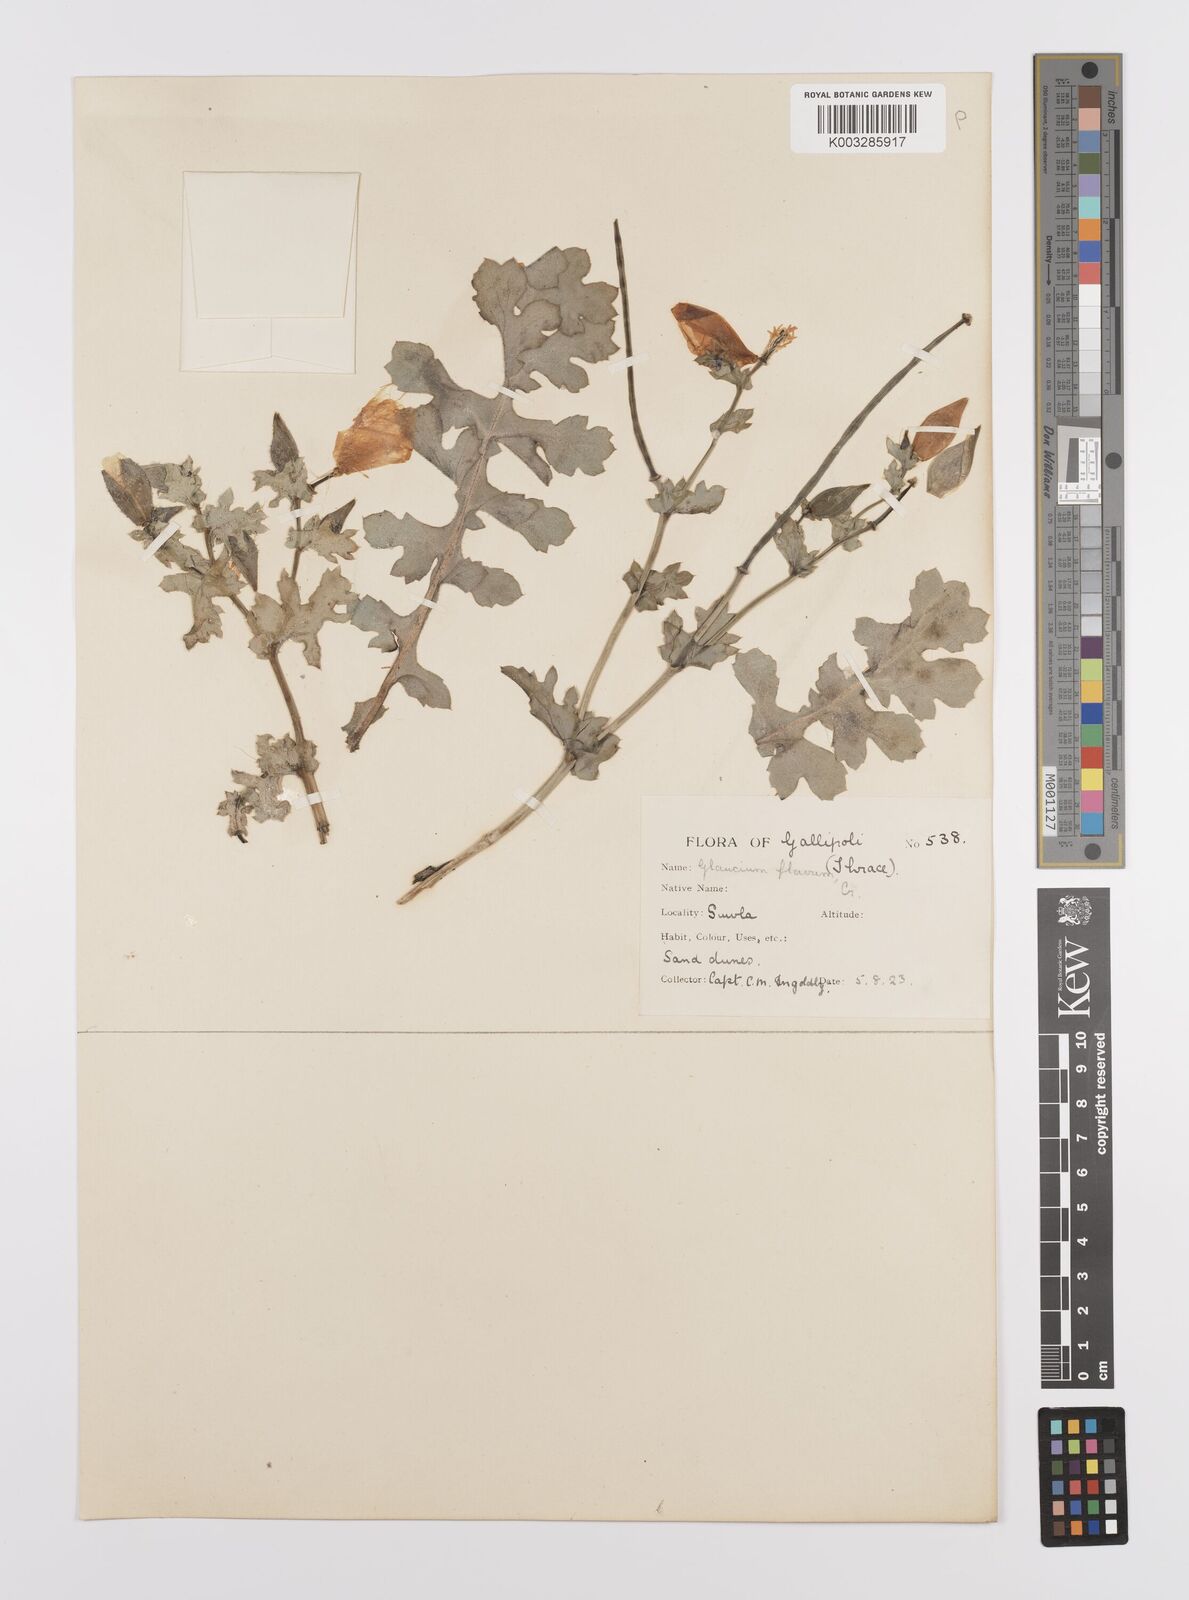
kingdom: Plantae
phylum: Tracheophyta
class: Magnoliopsida
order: Ranunculales
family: Papaveraceae
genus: Glaucium
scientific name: Glaucium flavum
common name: Yellow horned-poppy
